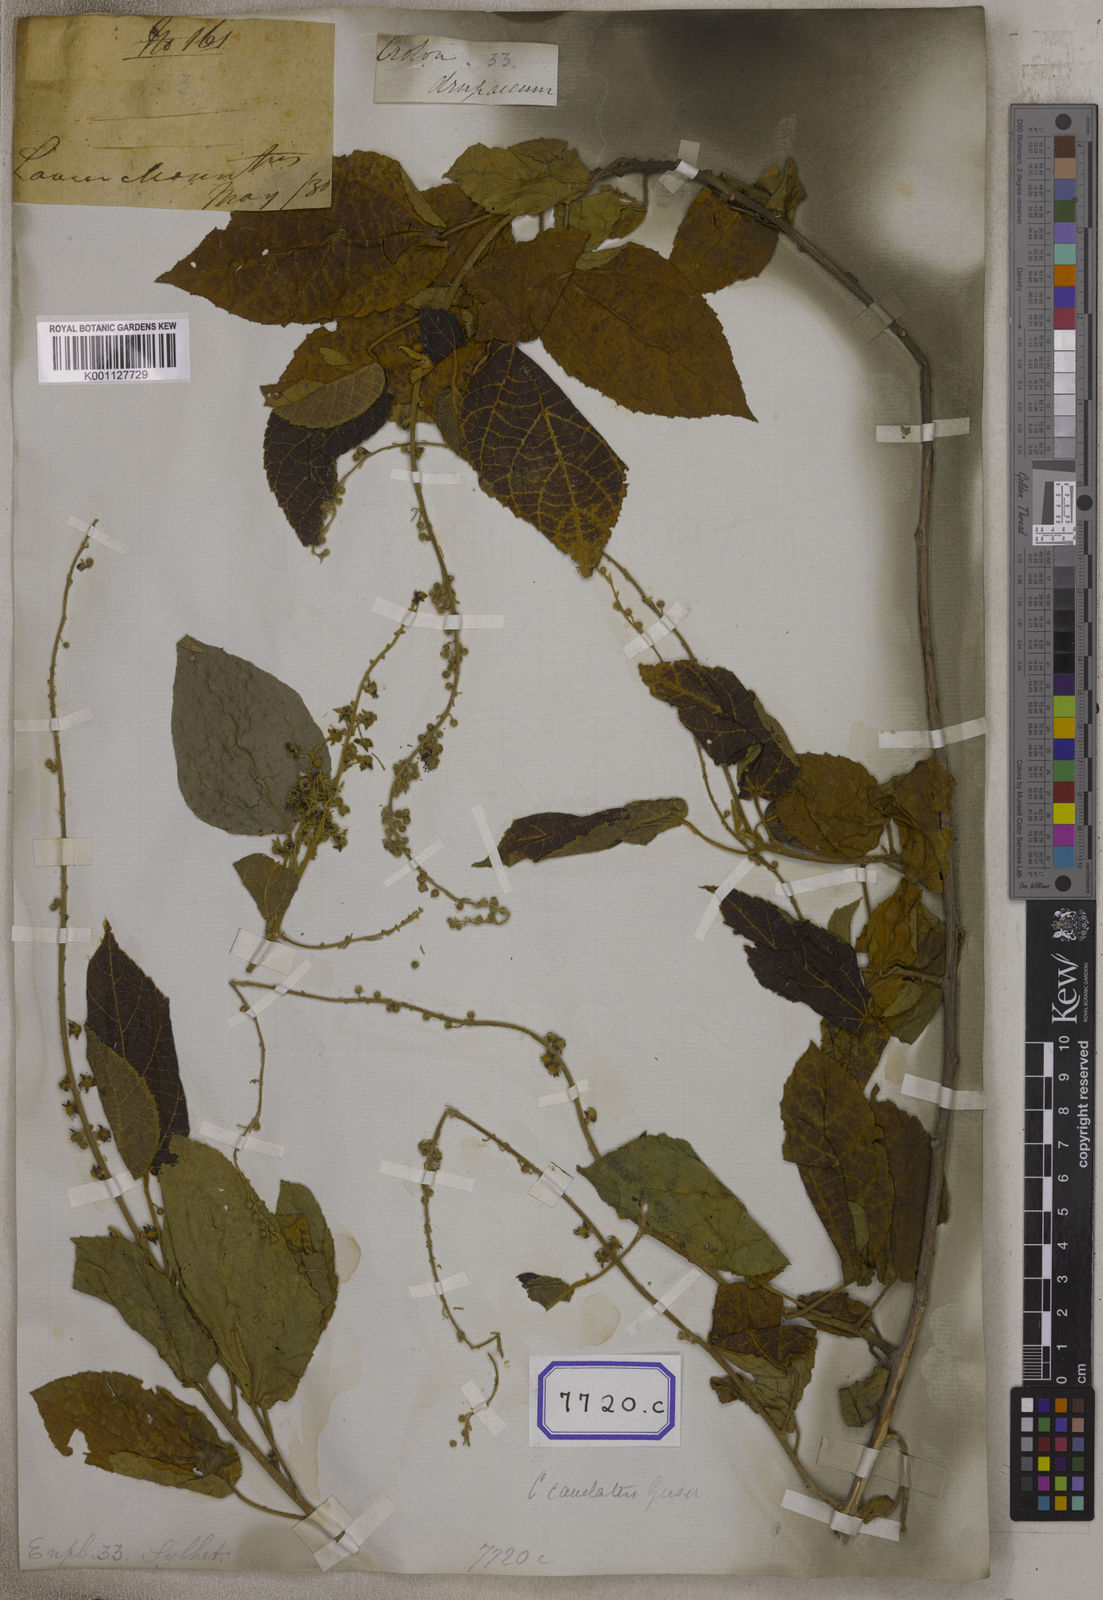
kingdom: Plantae
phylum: Tracheophyta
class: Magnoliopsida
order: Malpighiales
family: Euphorbiaceae
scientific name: Euphorbiaceae
